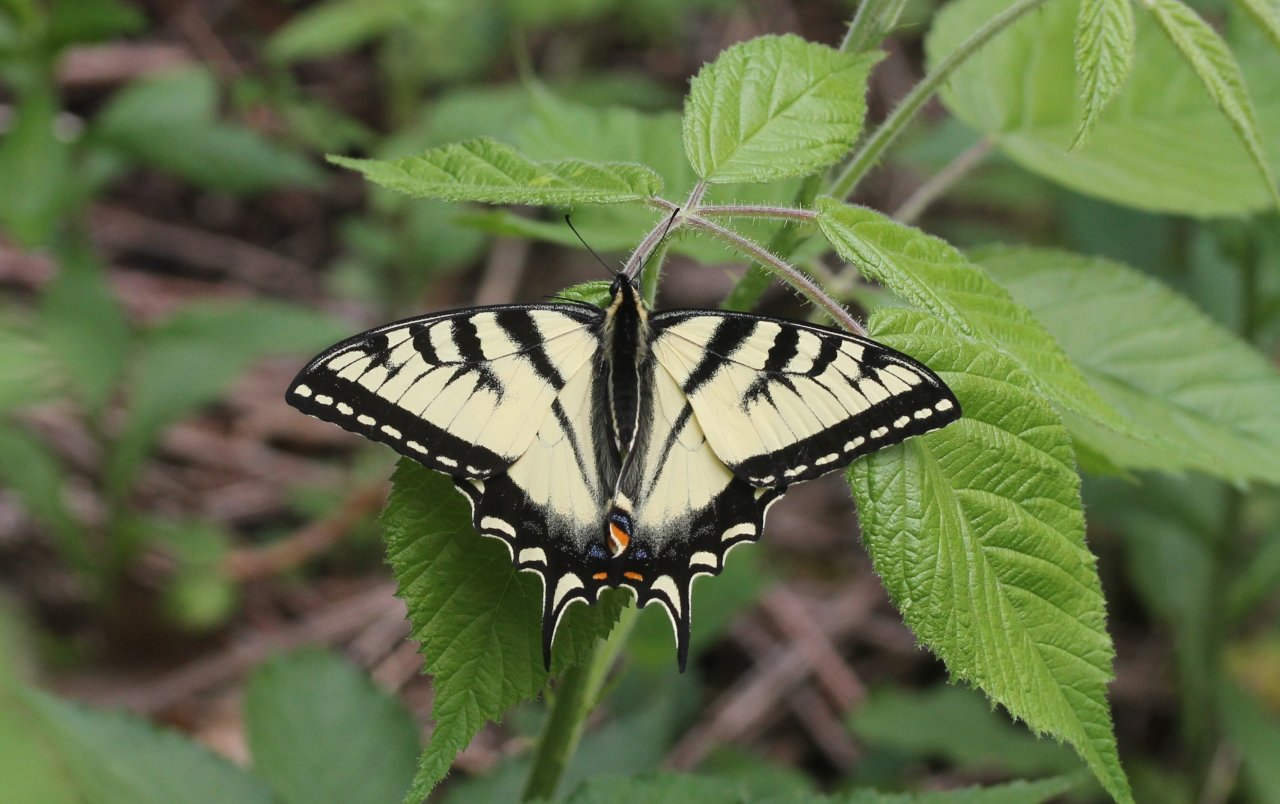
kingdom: Animalia
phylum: Arthropoda
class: Insecta
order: Lepidoptera
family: Papilionidae
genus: Pterourus
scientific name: Pterourus canadensis
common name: Canadian Tiger Swallowtail
